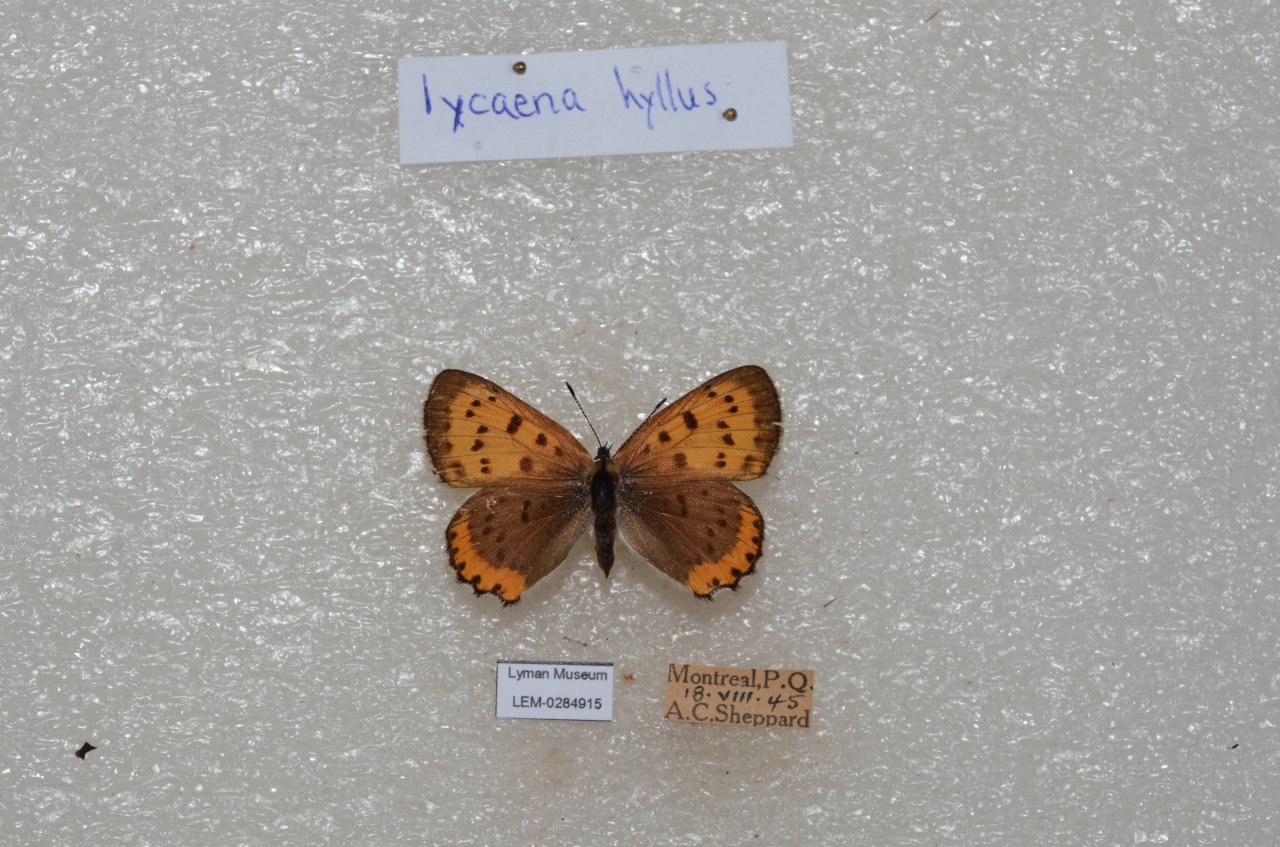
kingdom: Animalia
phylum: Arthropoda
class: Insecta
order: Lepidoptera
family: Sesiidae
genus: Sesia
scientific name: Sesia Lycaena hyllus
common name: Bronze Copper
